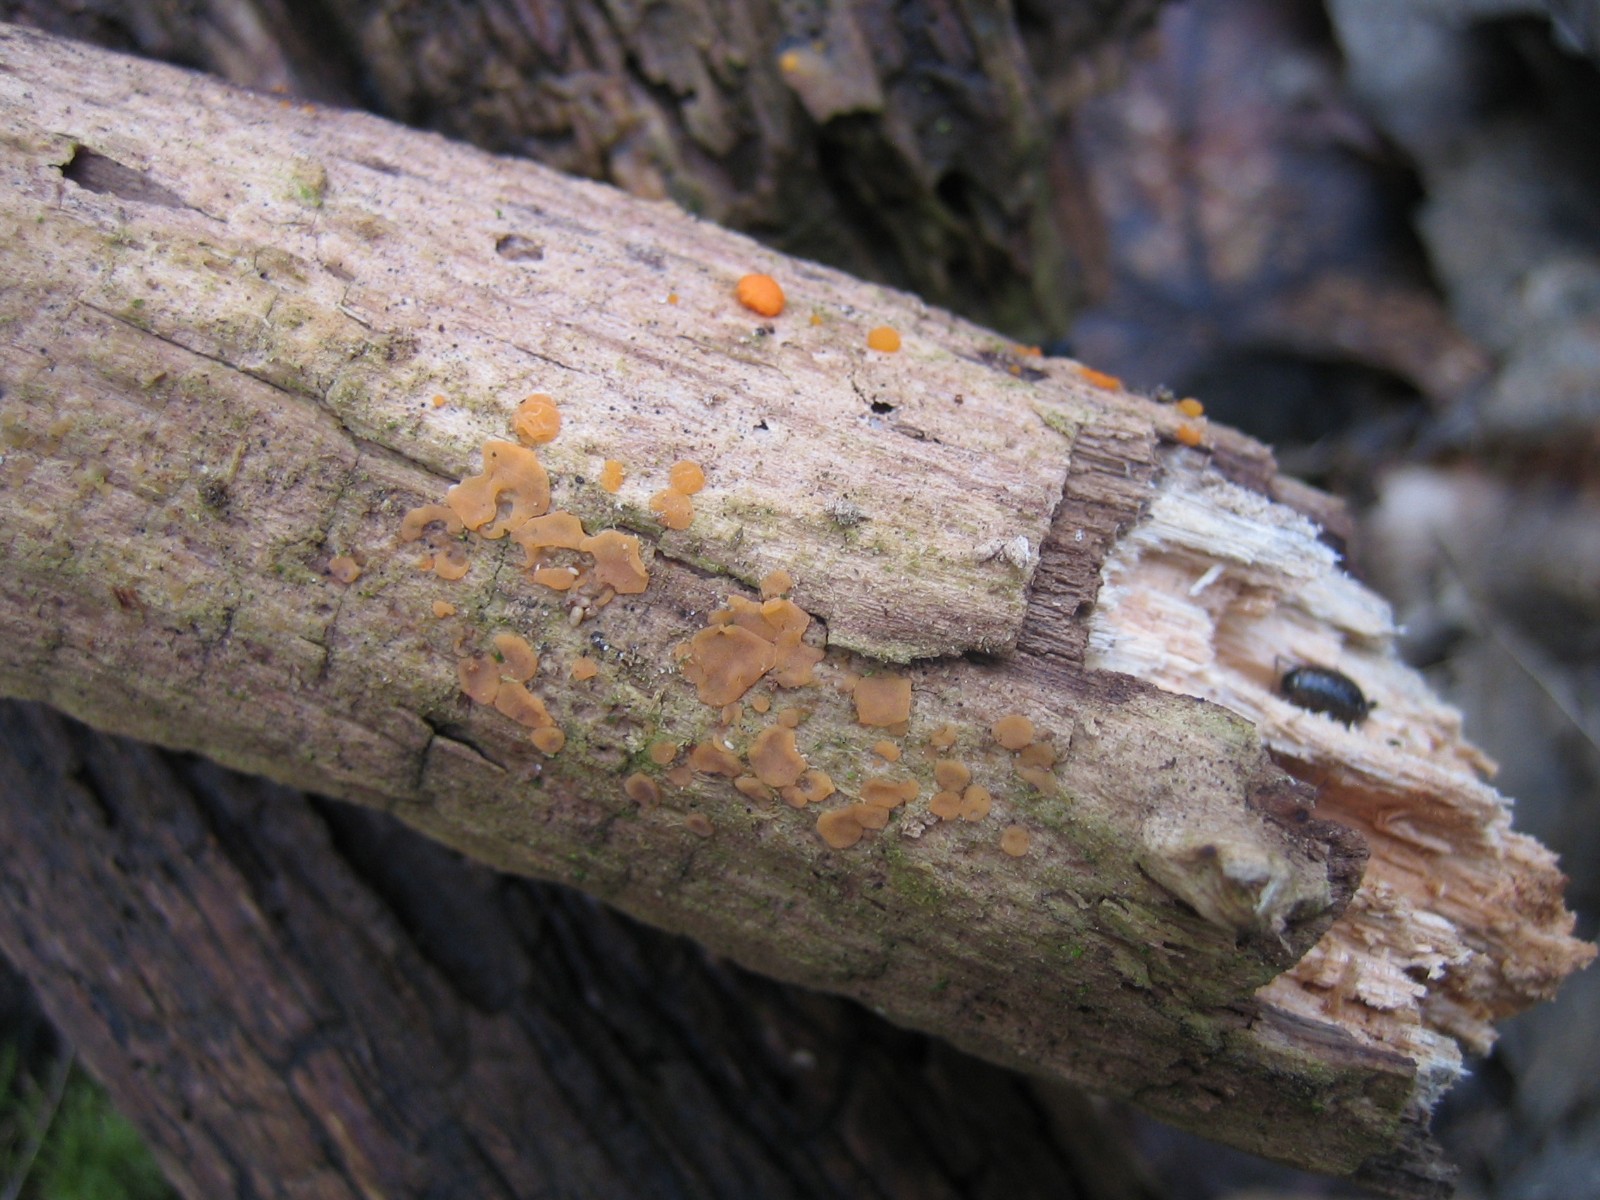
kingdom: Fungi
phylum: Basidiomycota
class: Dacrymycetes
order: Dacrymycetales
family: Dacrymycetaceae
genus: Dacrymyces
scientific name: Dacrymyces stillatus
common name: almindelig tåresvamp
